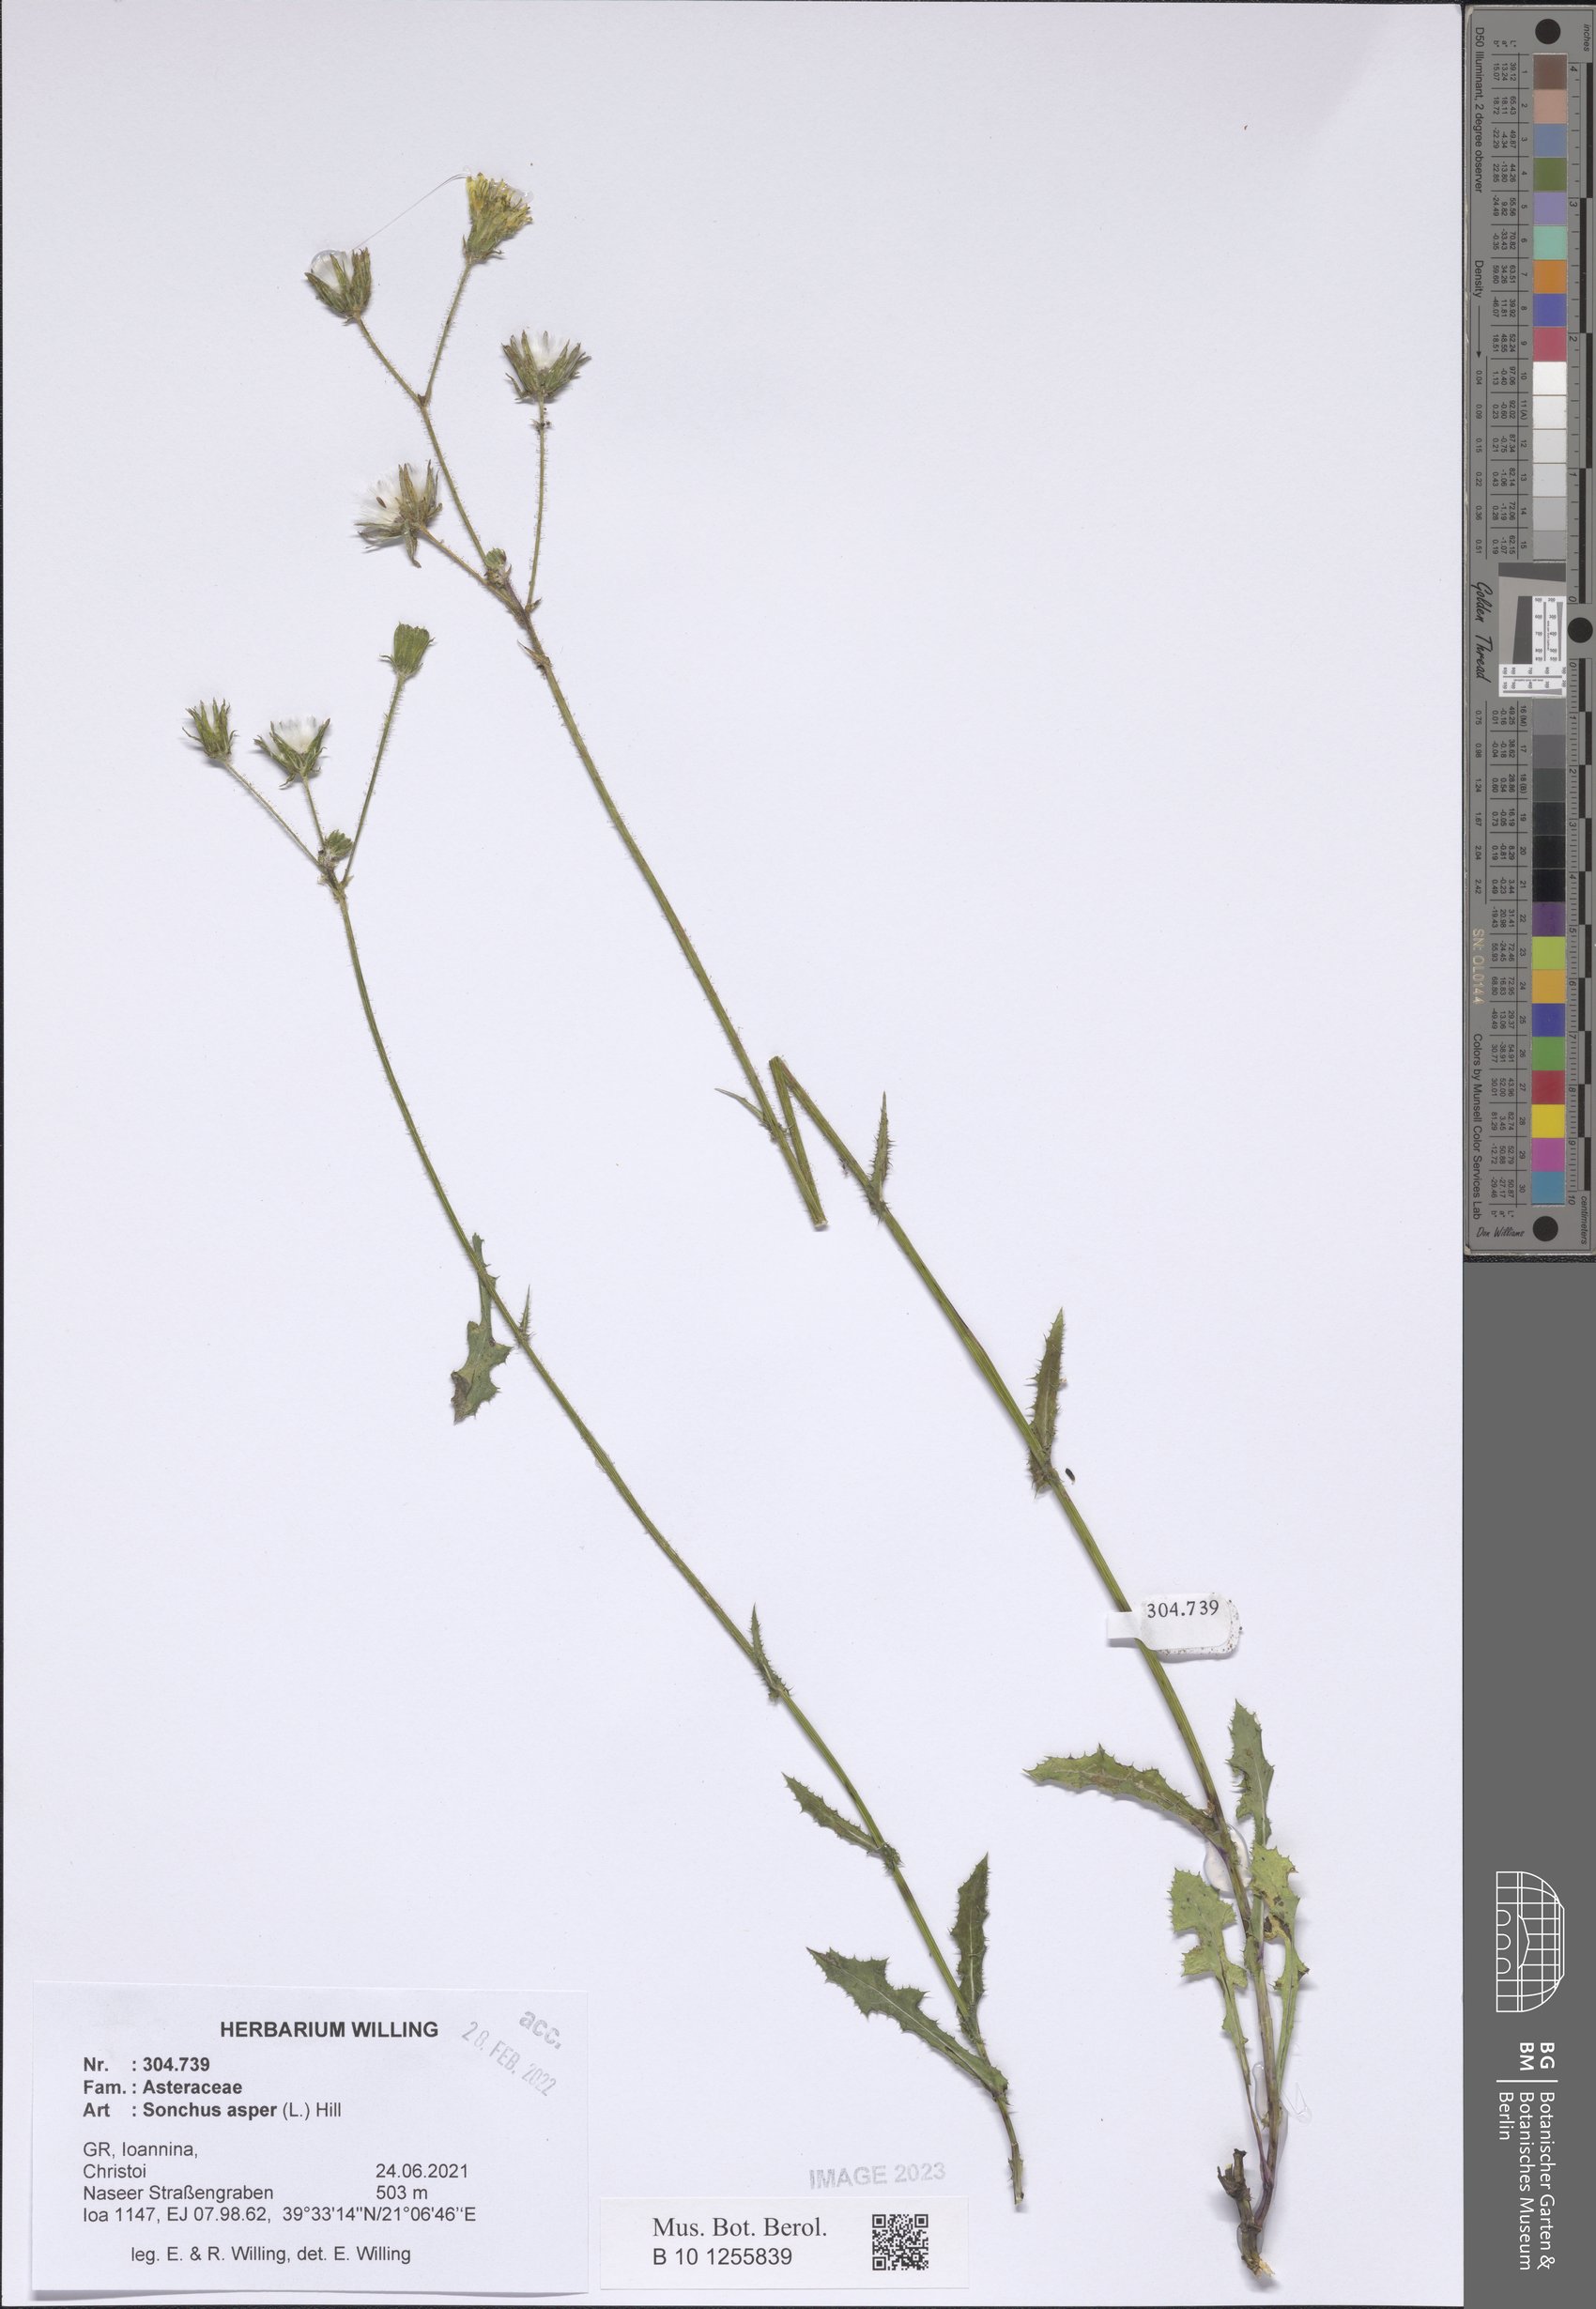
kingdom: Plantae
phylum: Tracheophyta
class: Magnoliopsida
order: Asterales
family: Asteraceae
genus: Sonchus
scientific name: Sonchus asper
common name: Prickly sow-thistle
